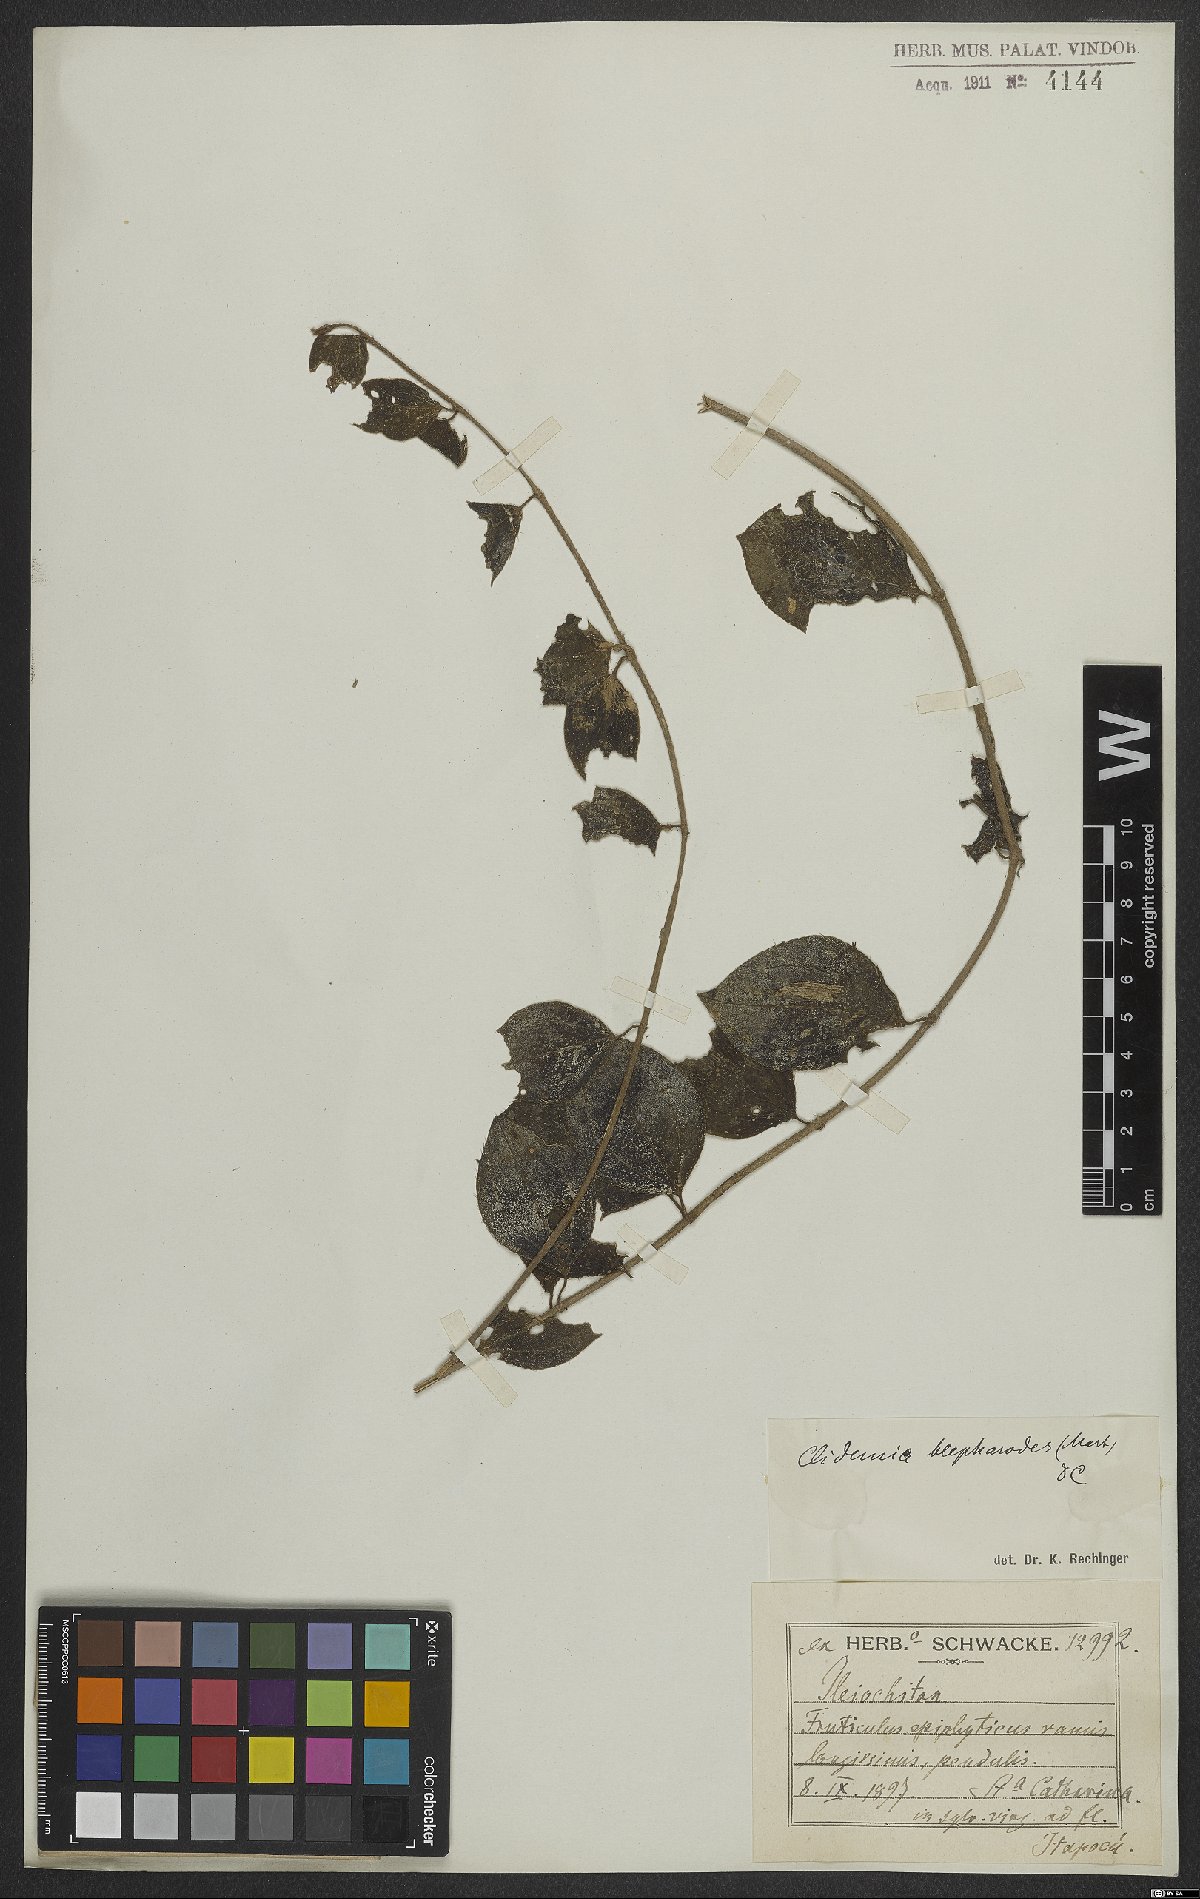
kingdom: Plantae
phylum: Tracheophyta
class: Magnoliopsida
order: Myrtales
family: Melastomataceae
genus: Miconia
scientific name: Miconia blepharodes
